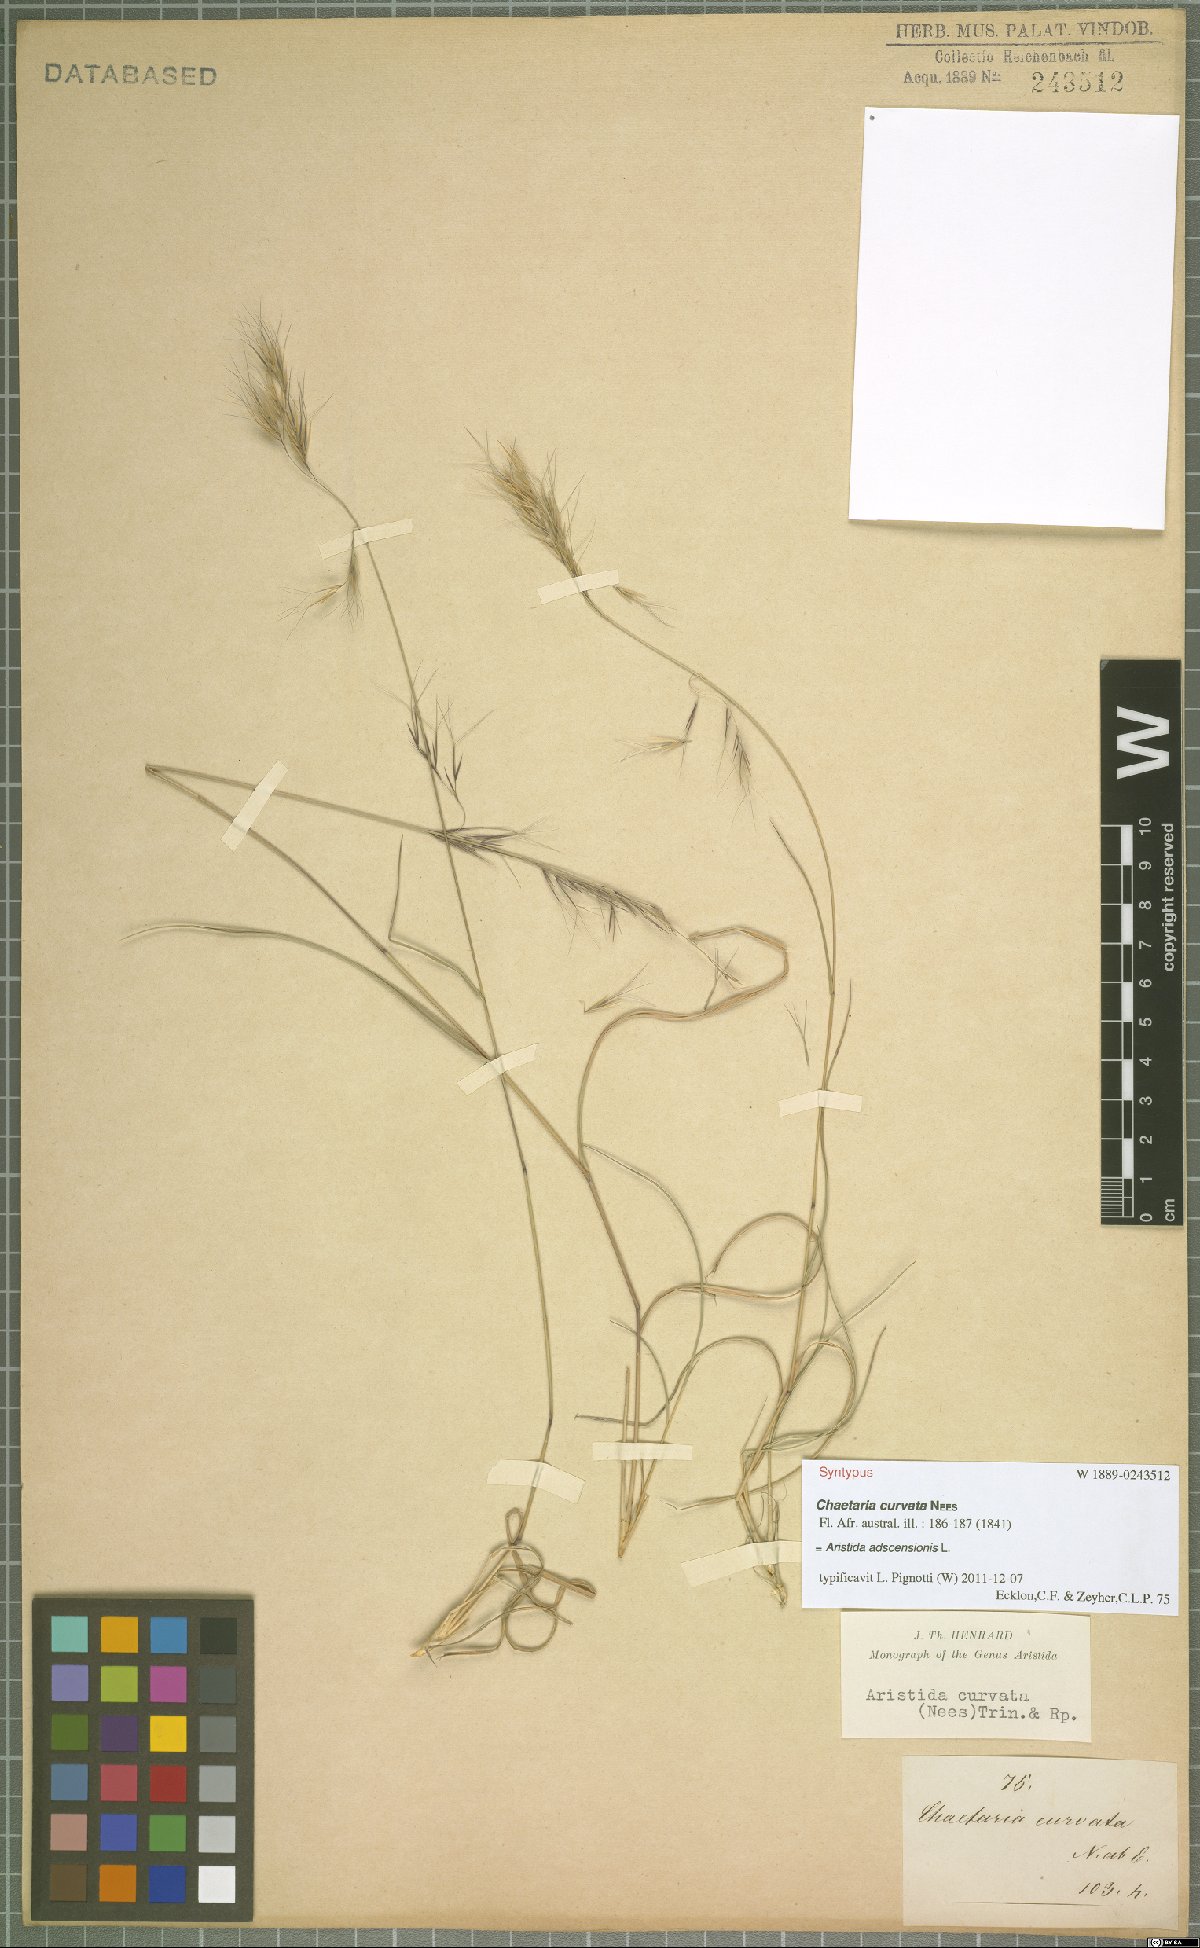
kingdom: Plantae
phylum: Tracheophyta
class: Liliopsida
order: Poales
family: Poaceae
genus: Aristida
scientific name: Aristida adscensionis
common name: Sixweeks threeawn
